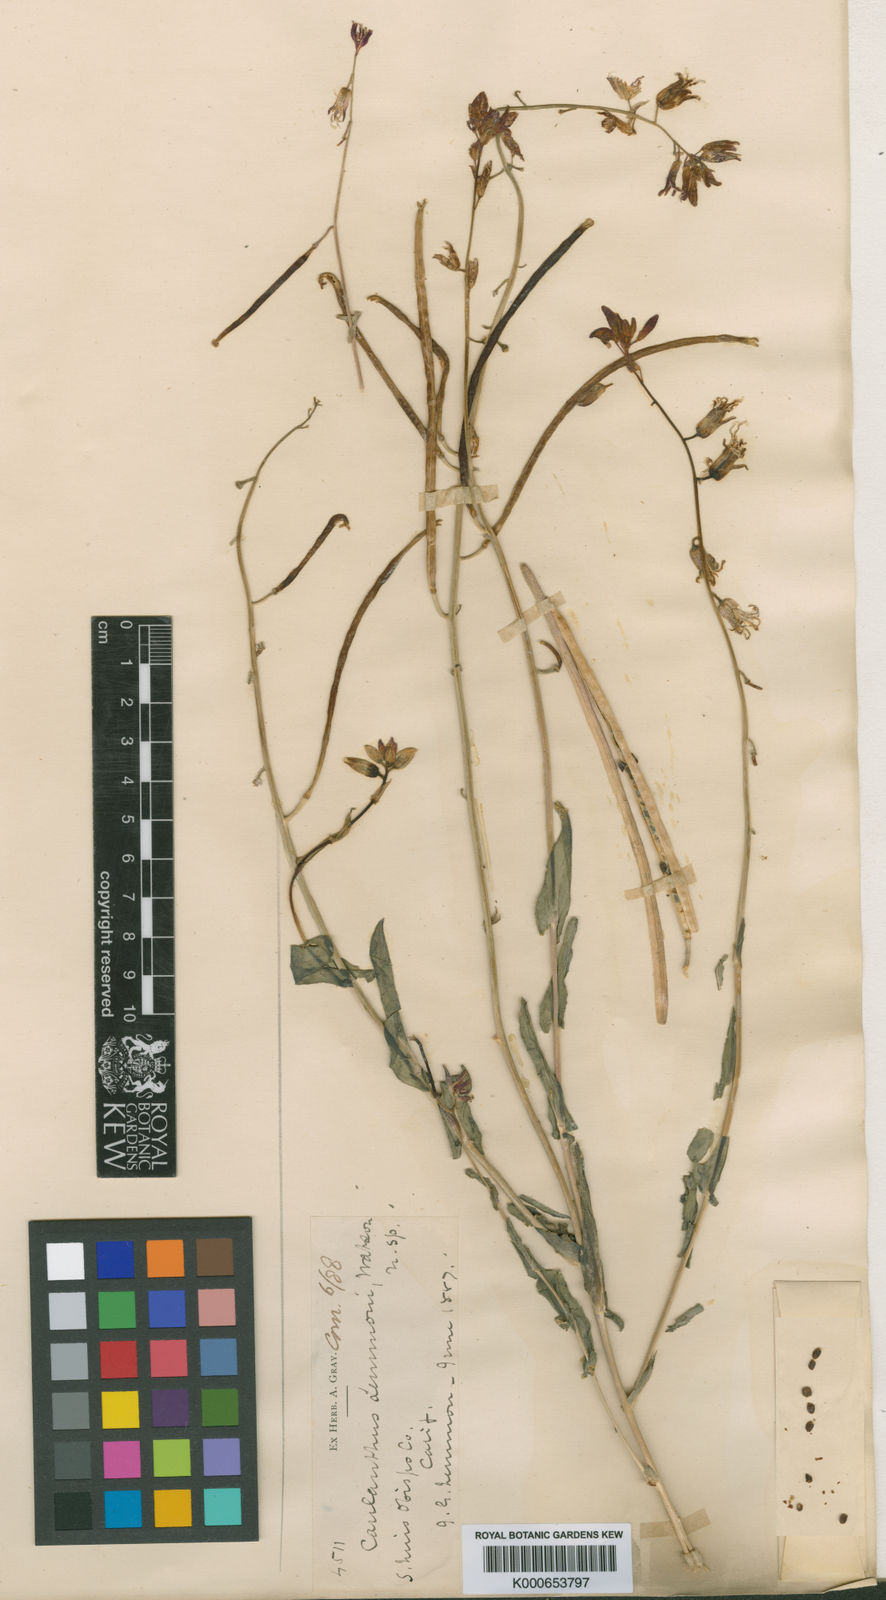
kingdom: Plantae
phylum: Tracheophyta
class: Magnoliopsida
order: Brassicales
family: Brassicaceae
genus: Streptanthus
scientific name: Streptanthus lemmonii
